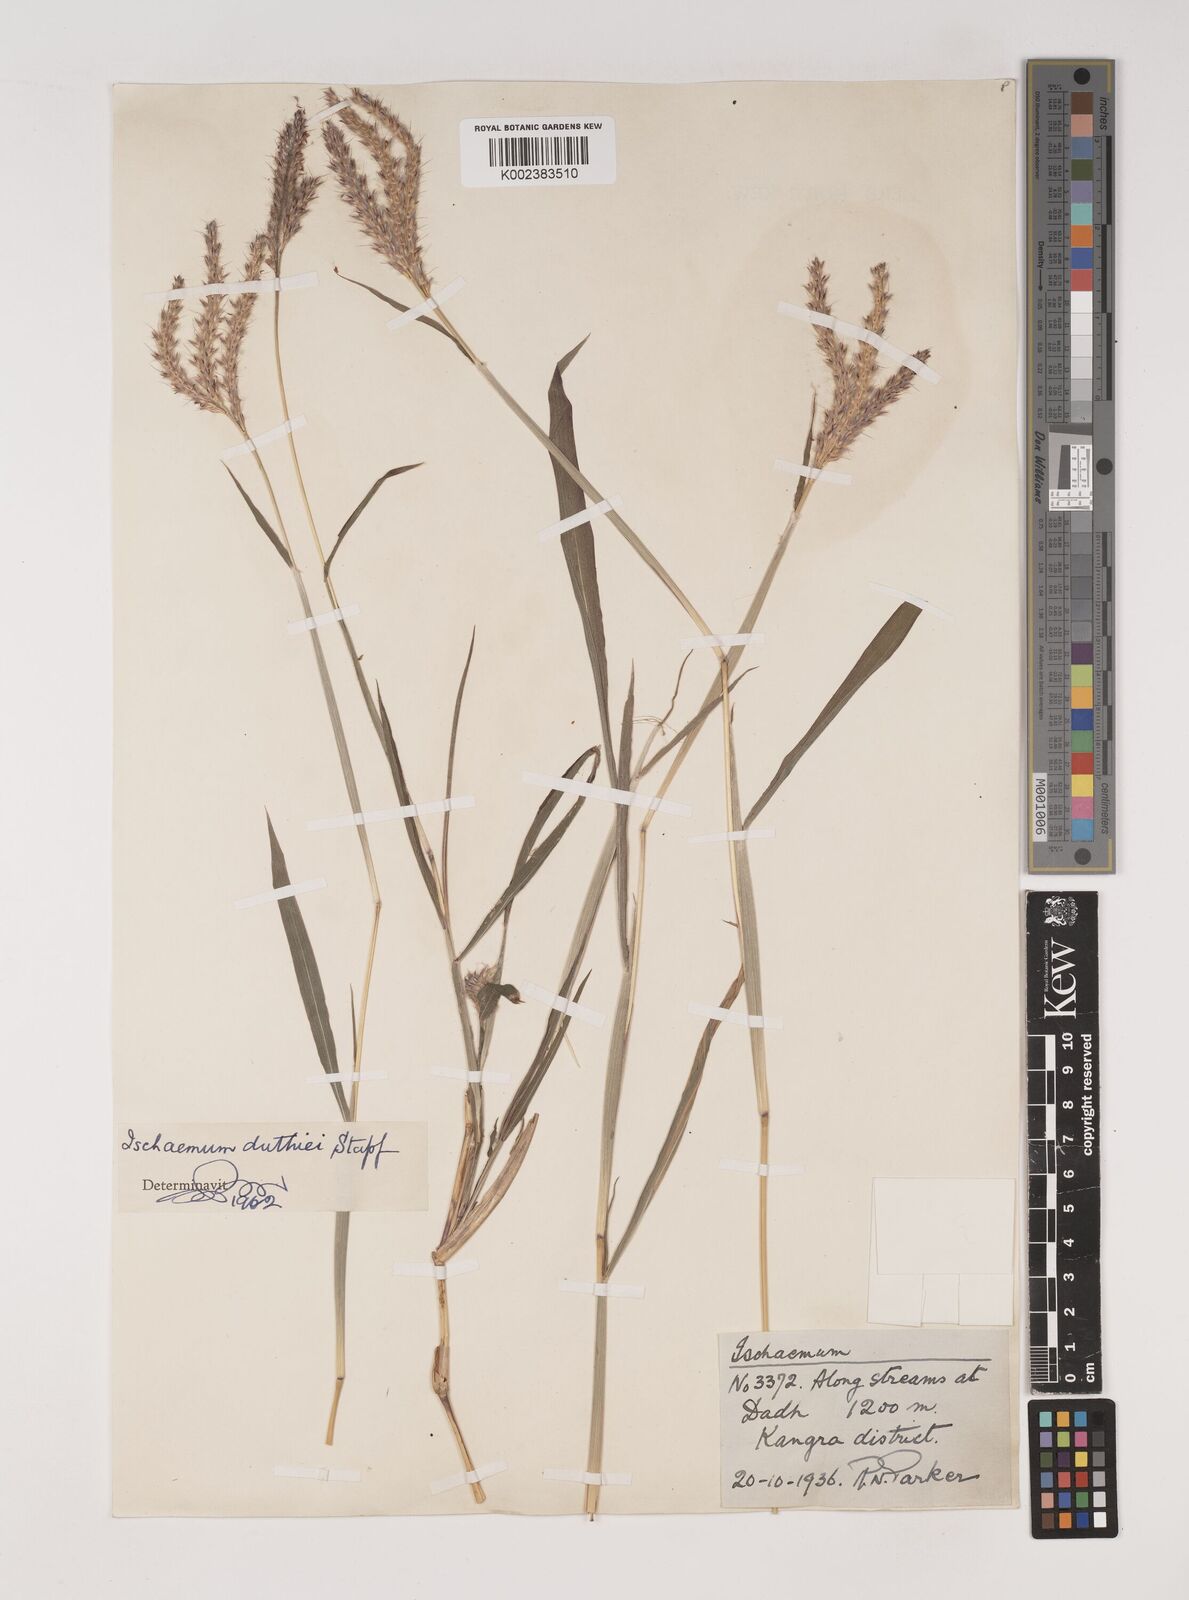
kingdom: Plantae
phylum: Tracheophyta
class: Liliopsida
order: Poales
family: Poaceae
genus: Ischaemum
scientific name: Ischaemum
